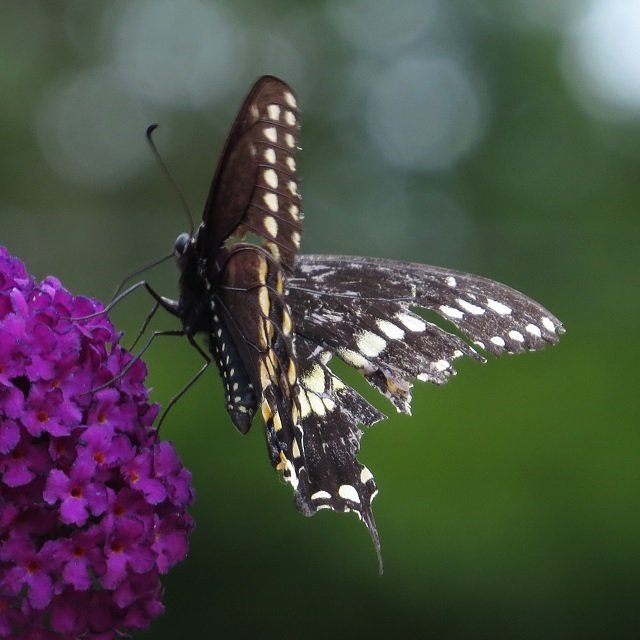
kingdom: Animalia
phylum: Arthropoda
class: Insecta
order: Lepidoptera
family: Papilionidae
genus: Papilio
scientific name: Papilio polyxenes
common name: Black Swallowtail
